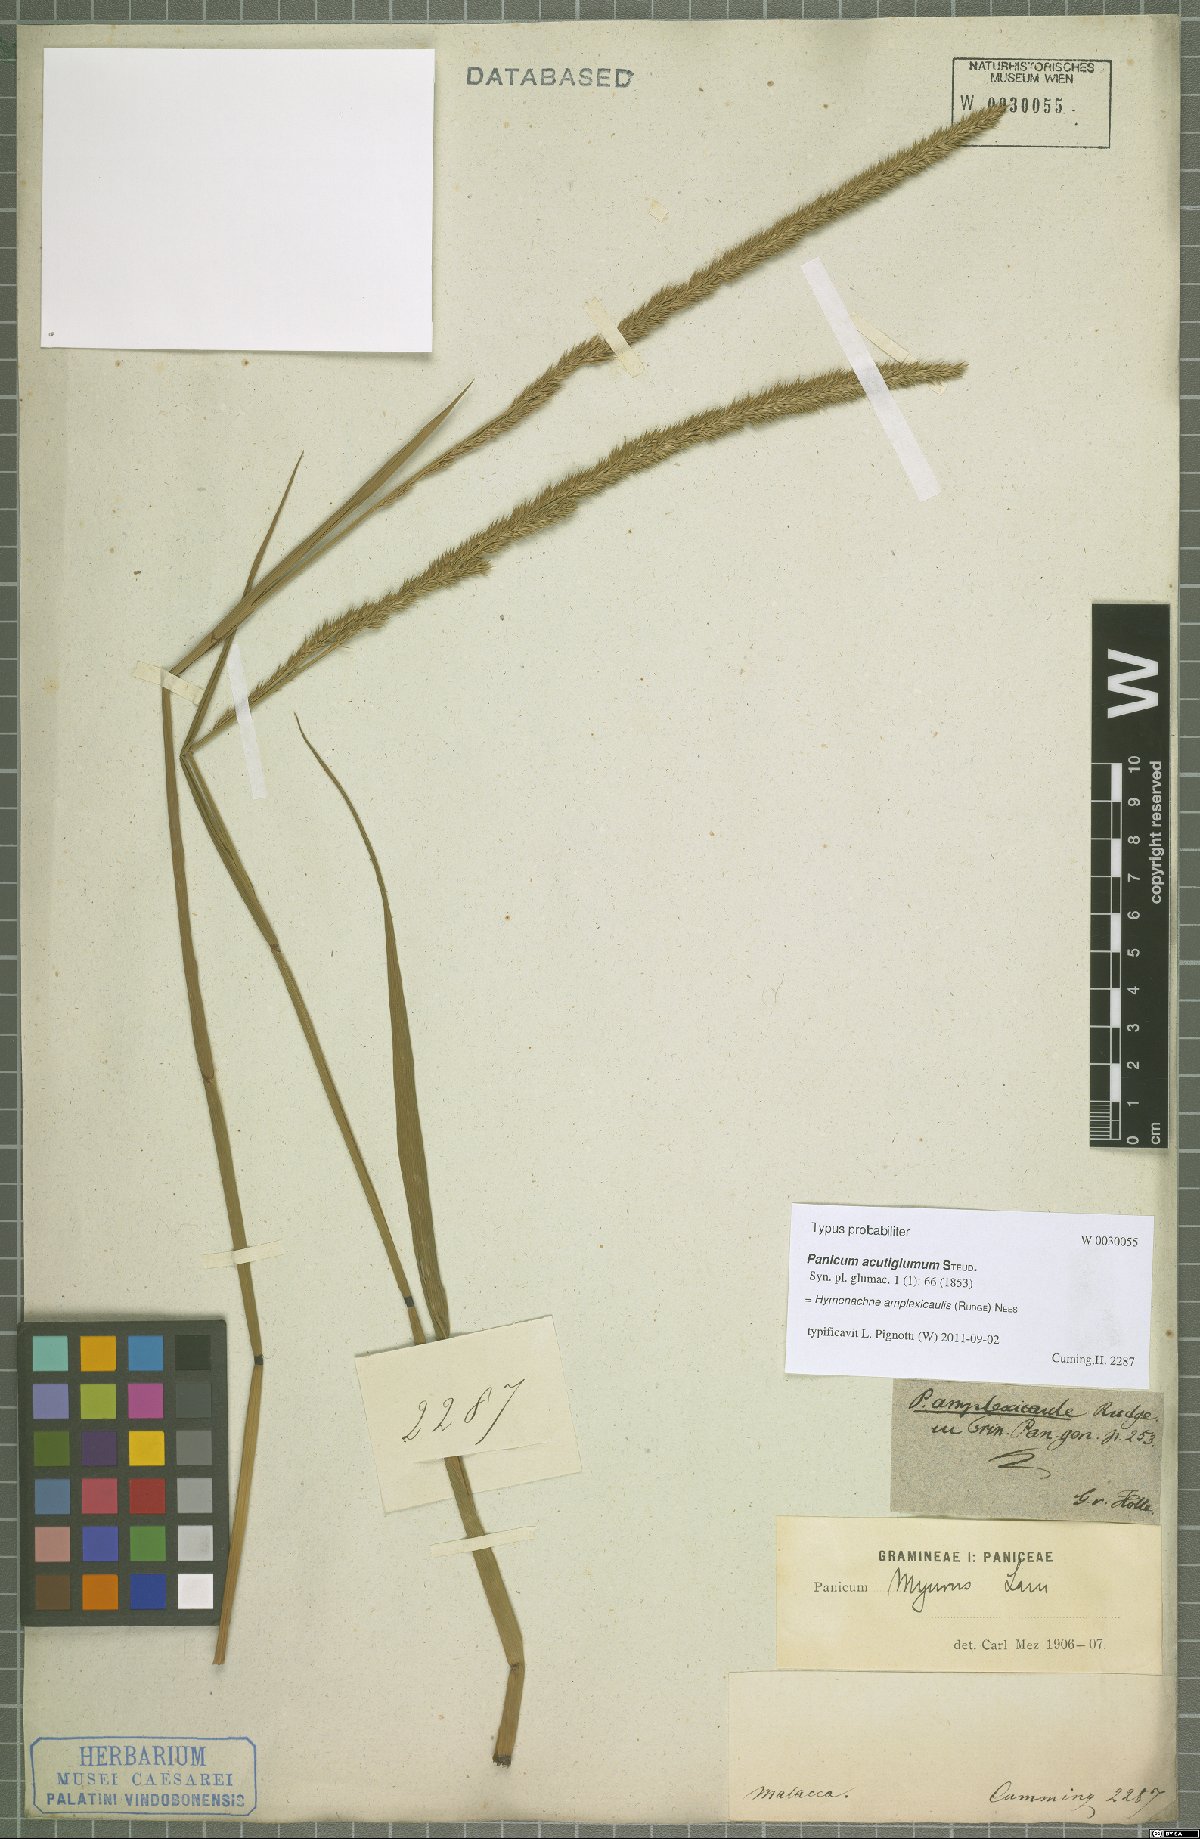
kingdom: Plantae
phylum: Tracheophyta
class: Liliopsida
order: Poales
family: Poaceae
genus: Hymenachne
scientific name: Hymenachne amplexicaulis
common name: Olive hymenachne
